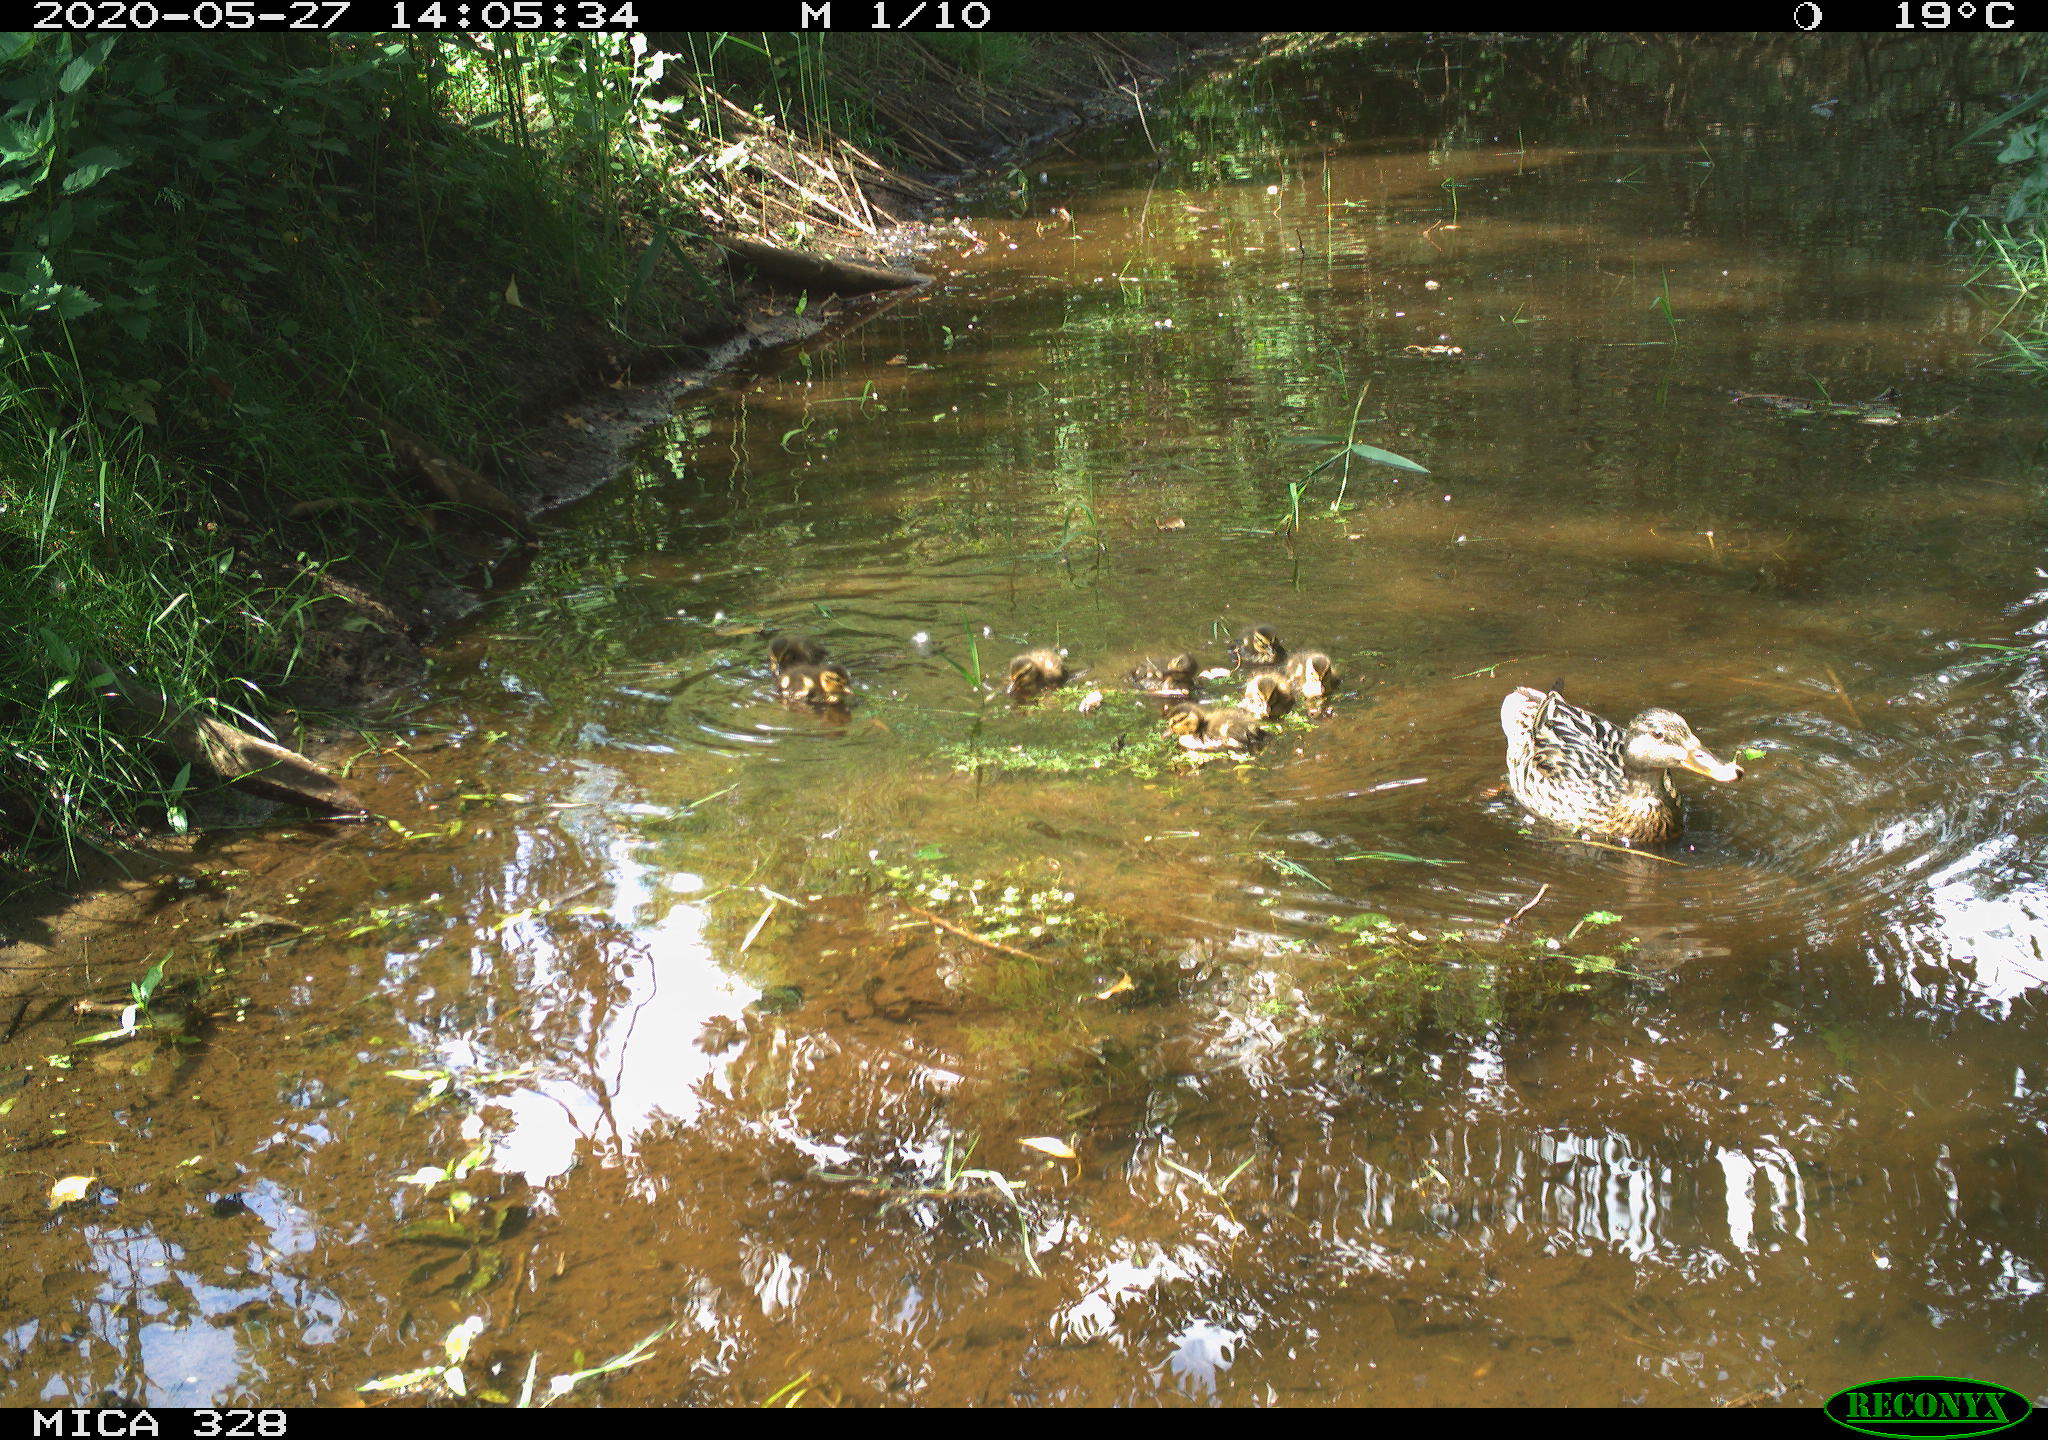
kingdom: Animalia
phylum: Chordata
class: Aves
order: Anseriformes
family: Anatidae
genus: Anas
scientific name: Anas platyrhynchos
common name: Mallard
